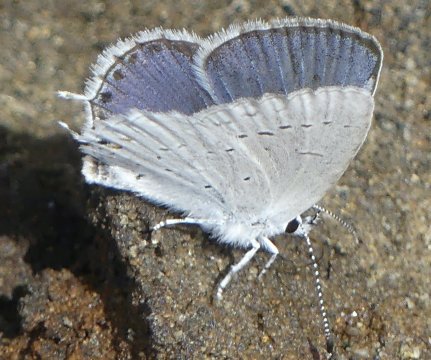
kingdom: Animalia
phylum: Arthropoda
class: Insecta
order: Lepidoptera
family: Lycaenidae
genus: Elkalyce
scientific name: Elkalyce amyntula
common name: Western Tailed-Blue
